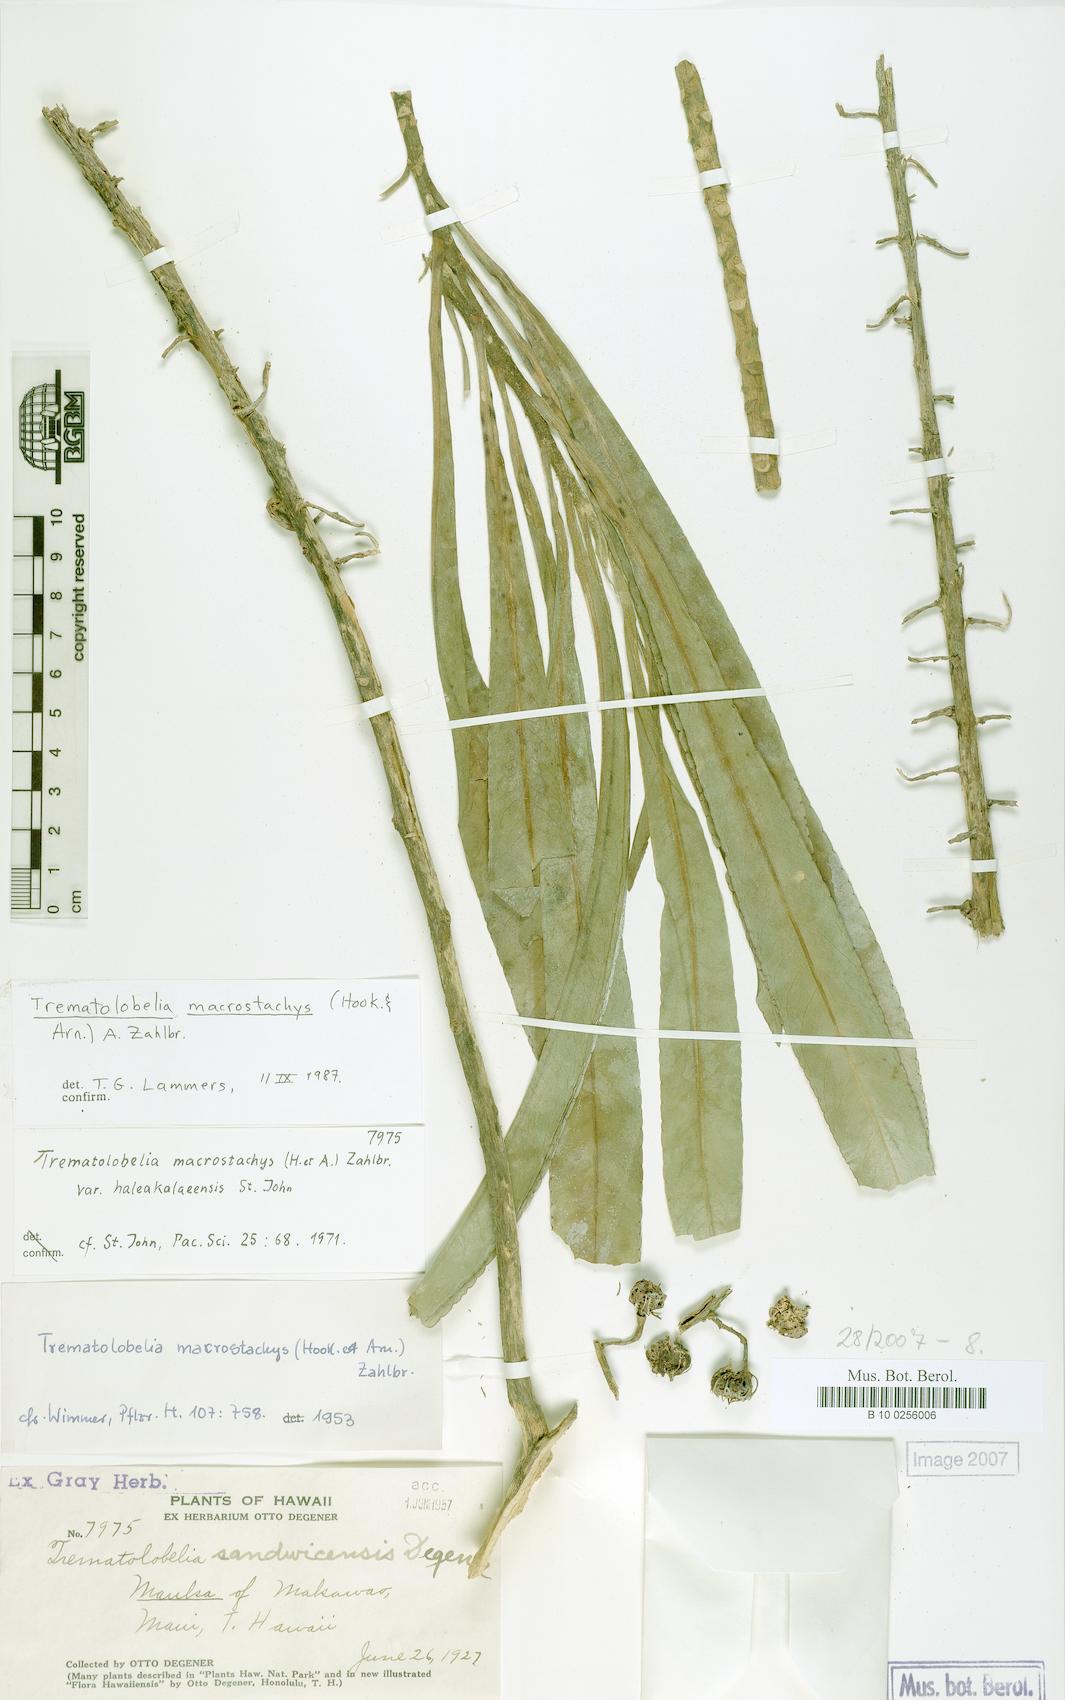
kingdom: Plantae
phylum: Tracheophyta
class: Magnoliopsida
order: Asterales
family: Campanulaceae
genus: Trematolobelia
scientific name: Trematolobelia macrostachys
